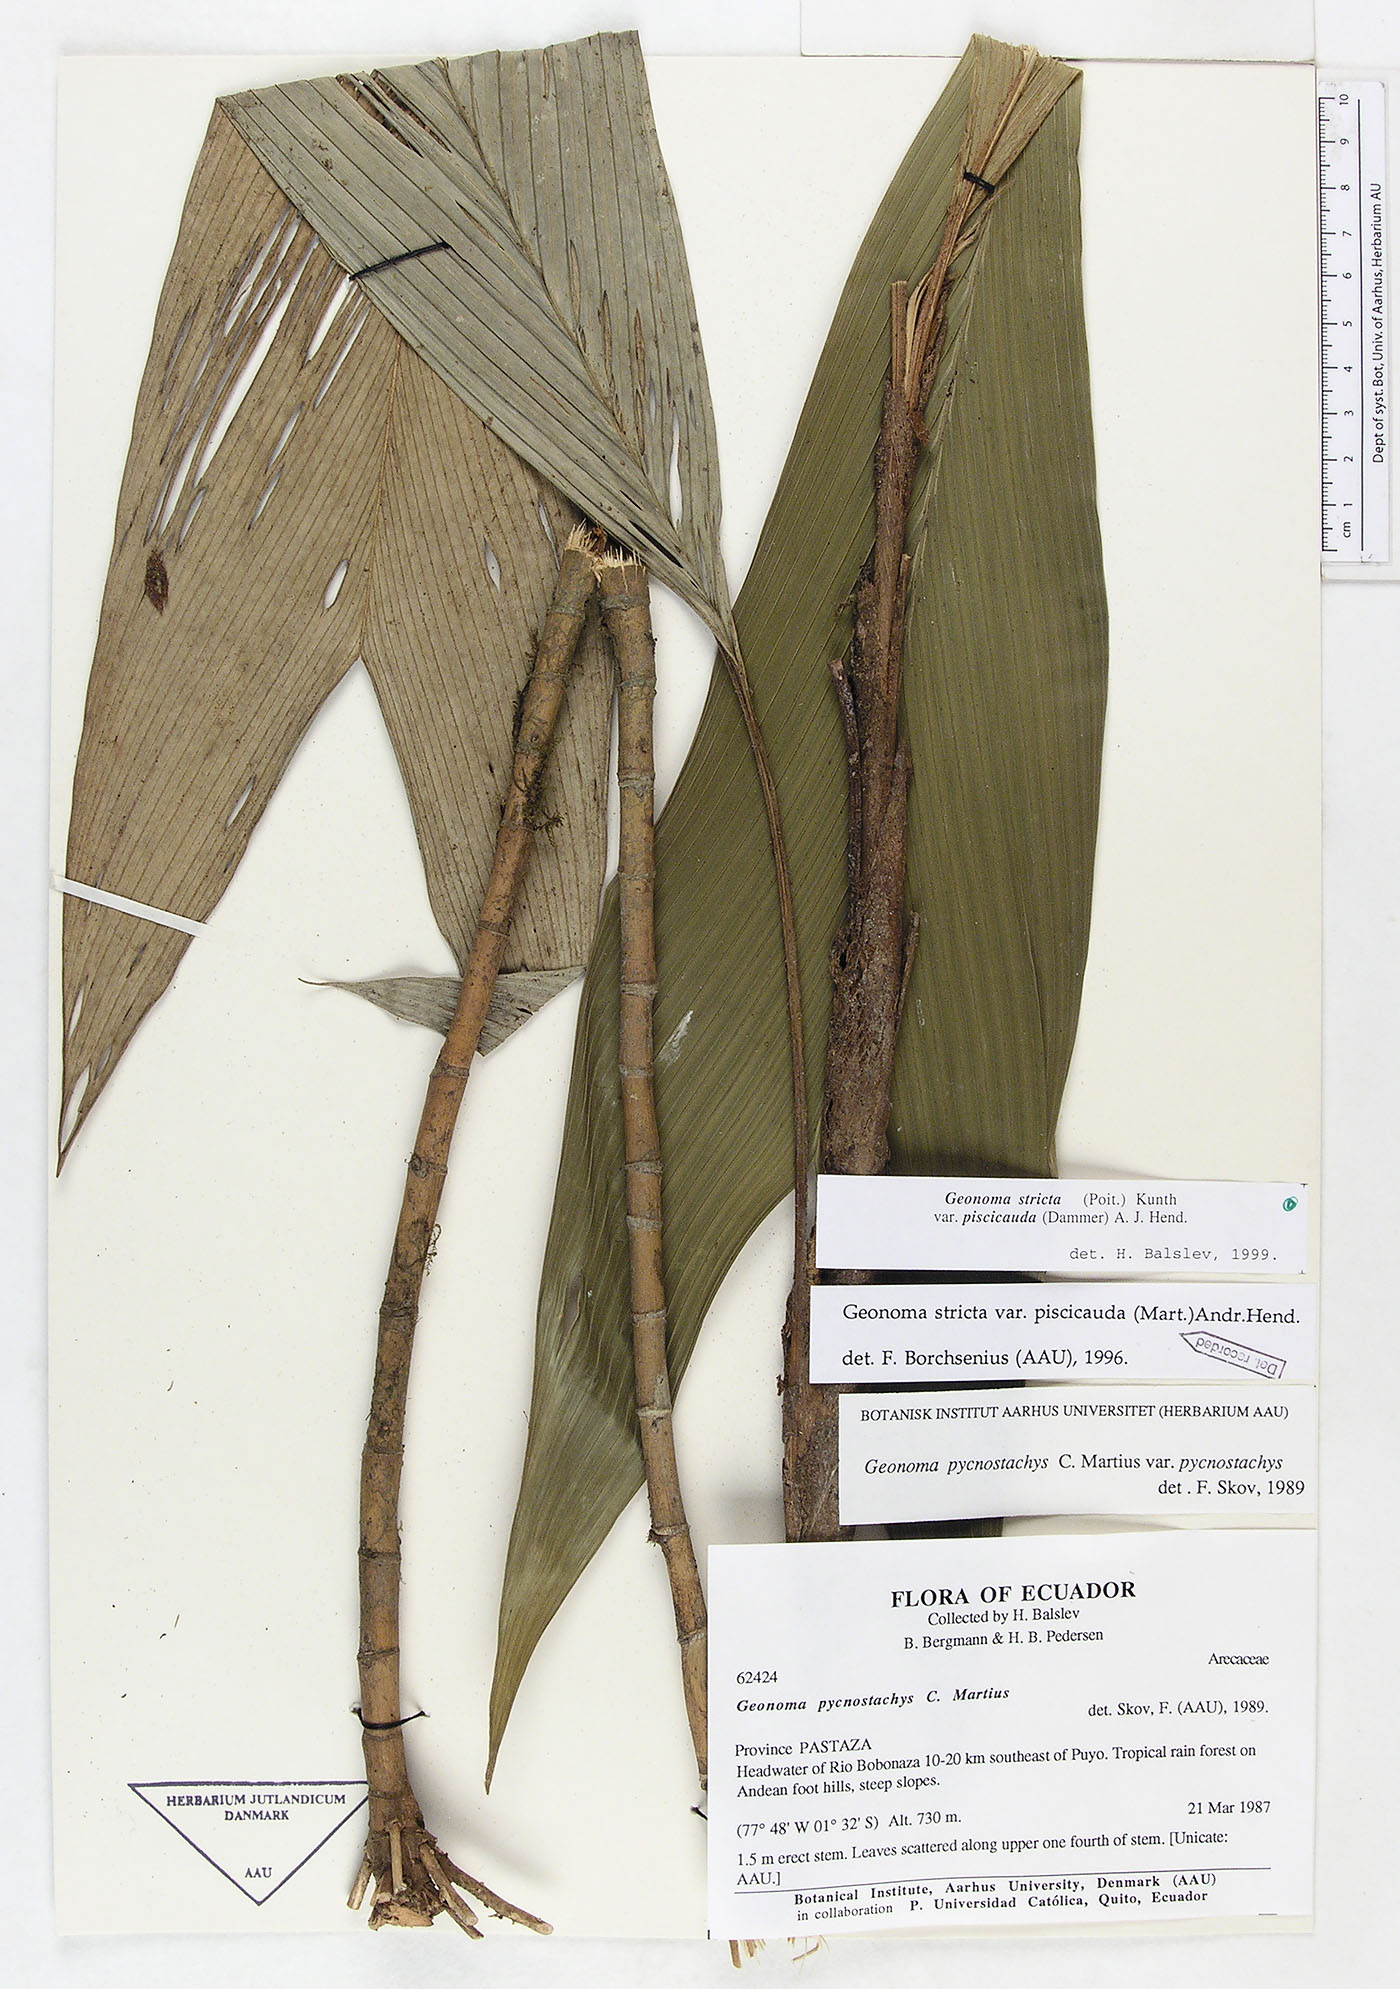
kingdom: Plantae
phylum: Tracheophyta
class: Liliopsida
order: Arecales
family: Arecaceae
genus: Geonoma
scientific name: Geonoma stricta
